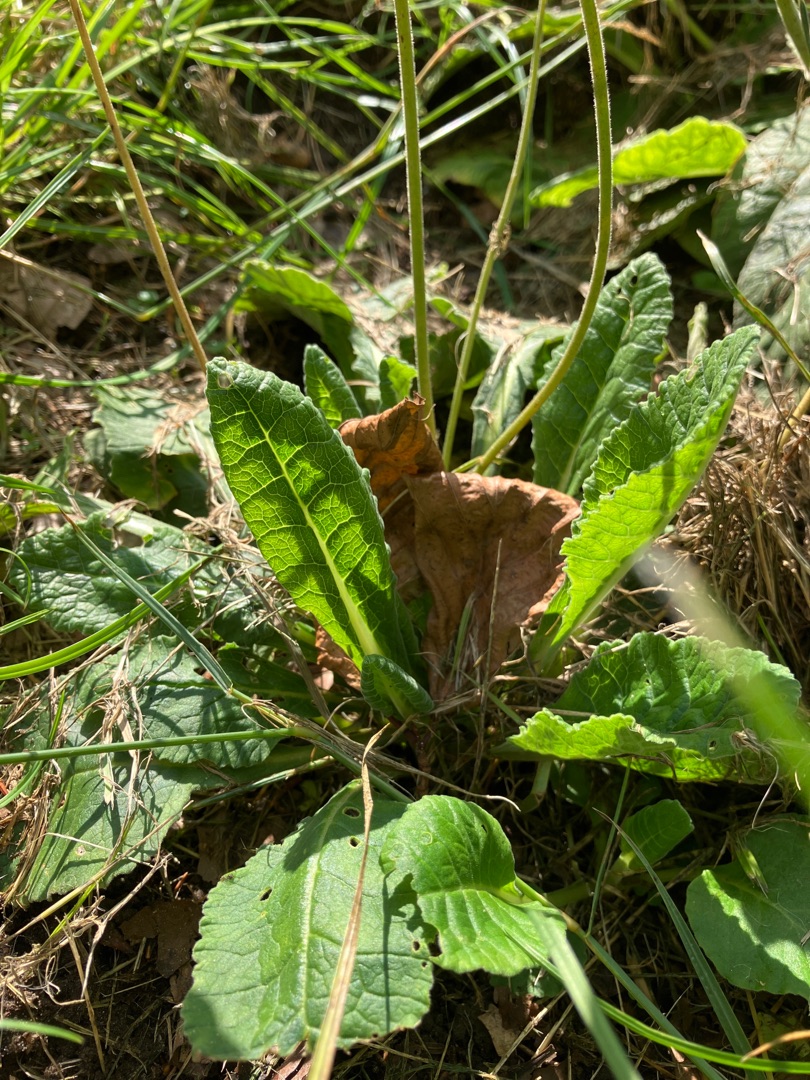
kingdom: Plantae
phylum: Tracheophyta
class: Magnoliopsida
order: Ericales
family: Primulaceae
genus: Primula
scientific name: Primula elatior
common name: Fladkravet kodriver
